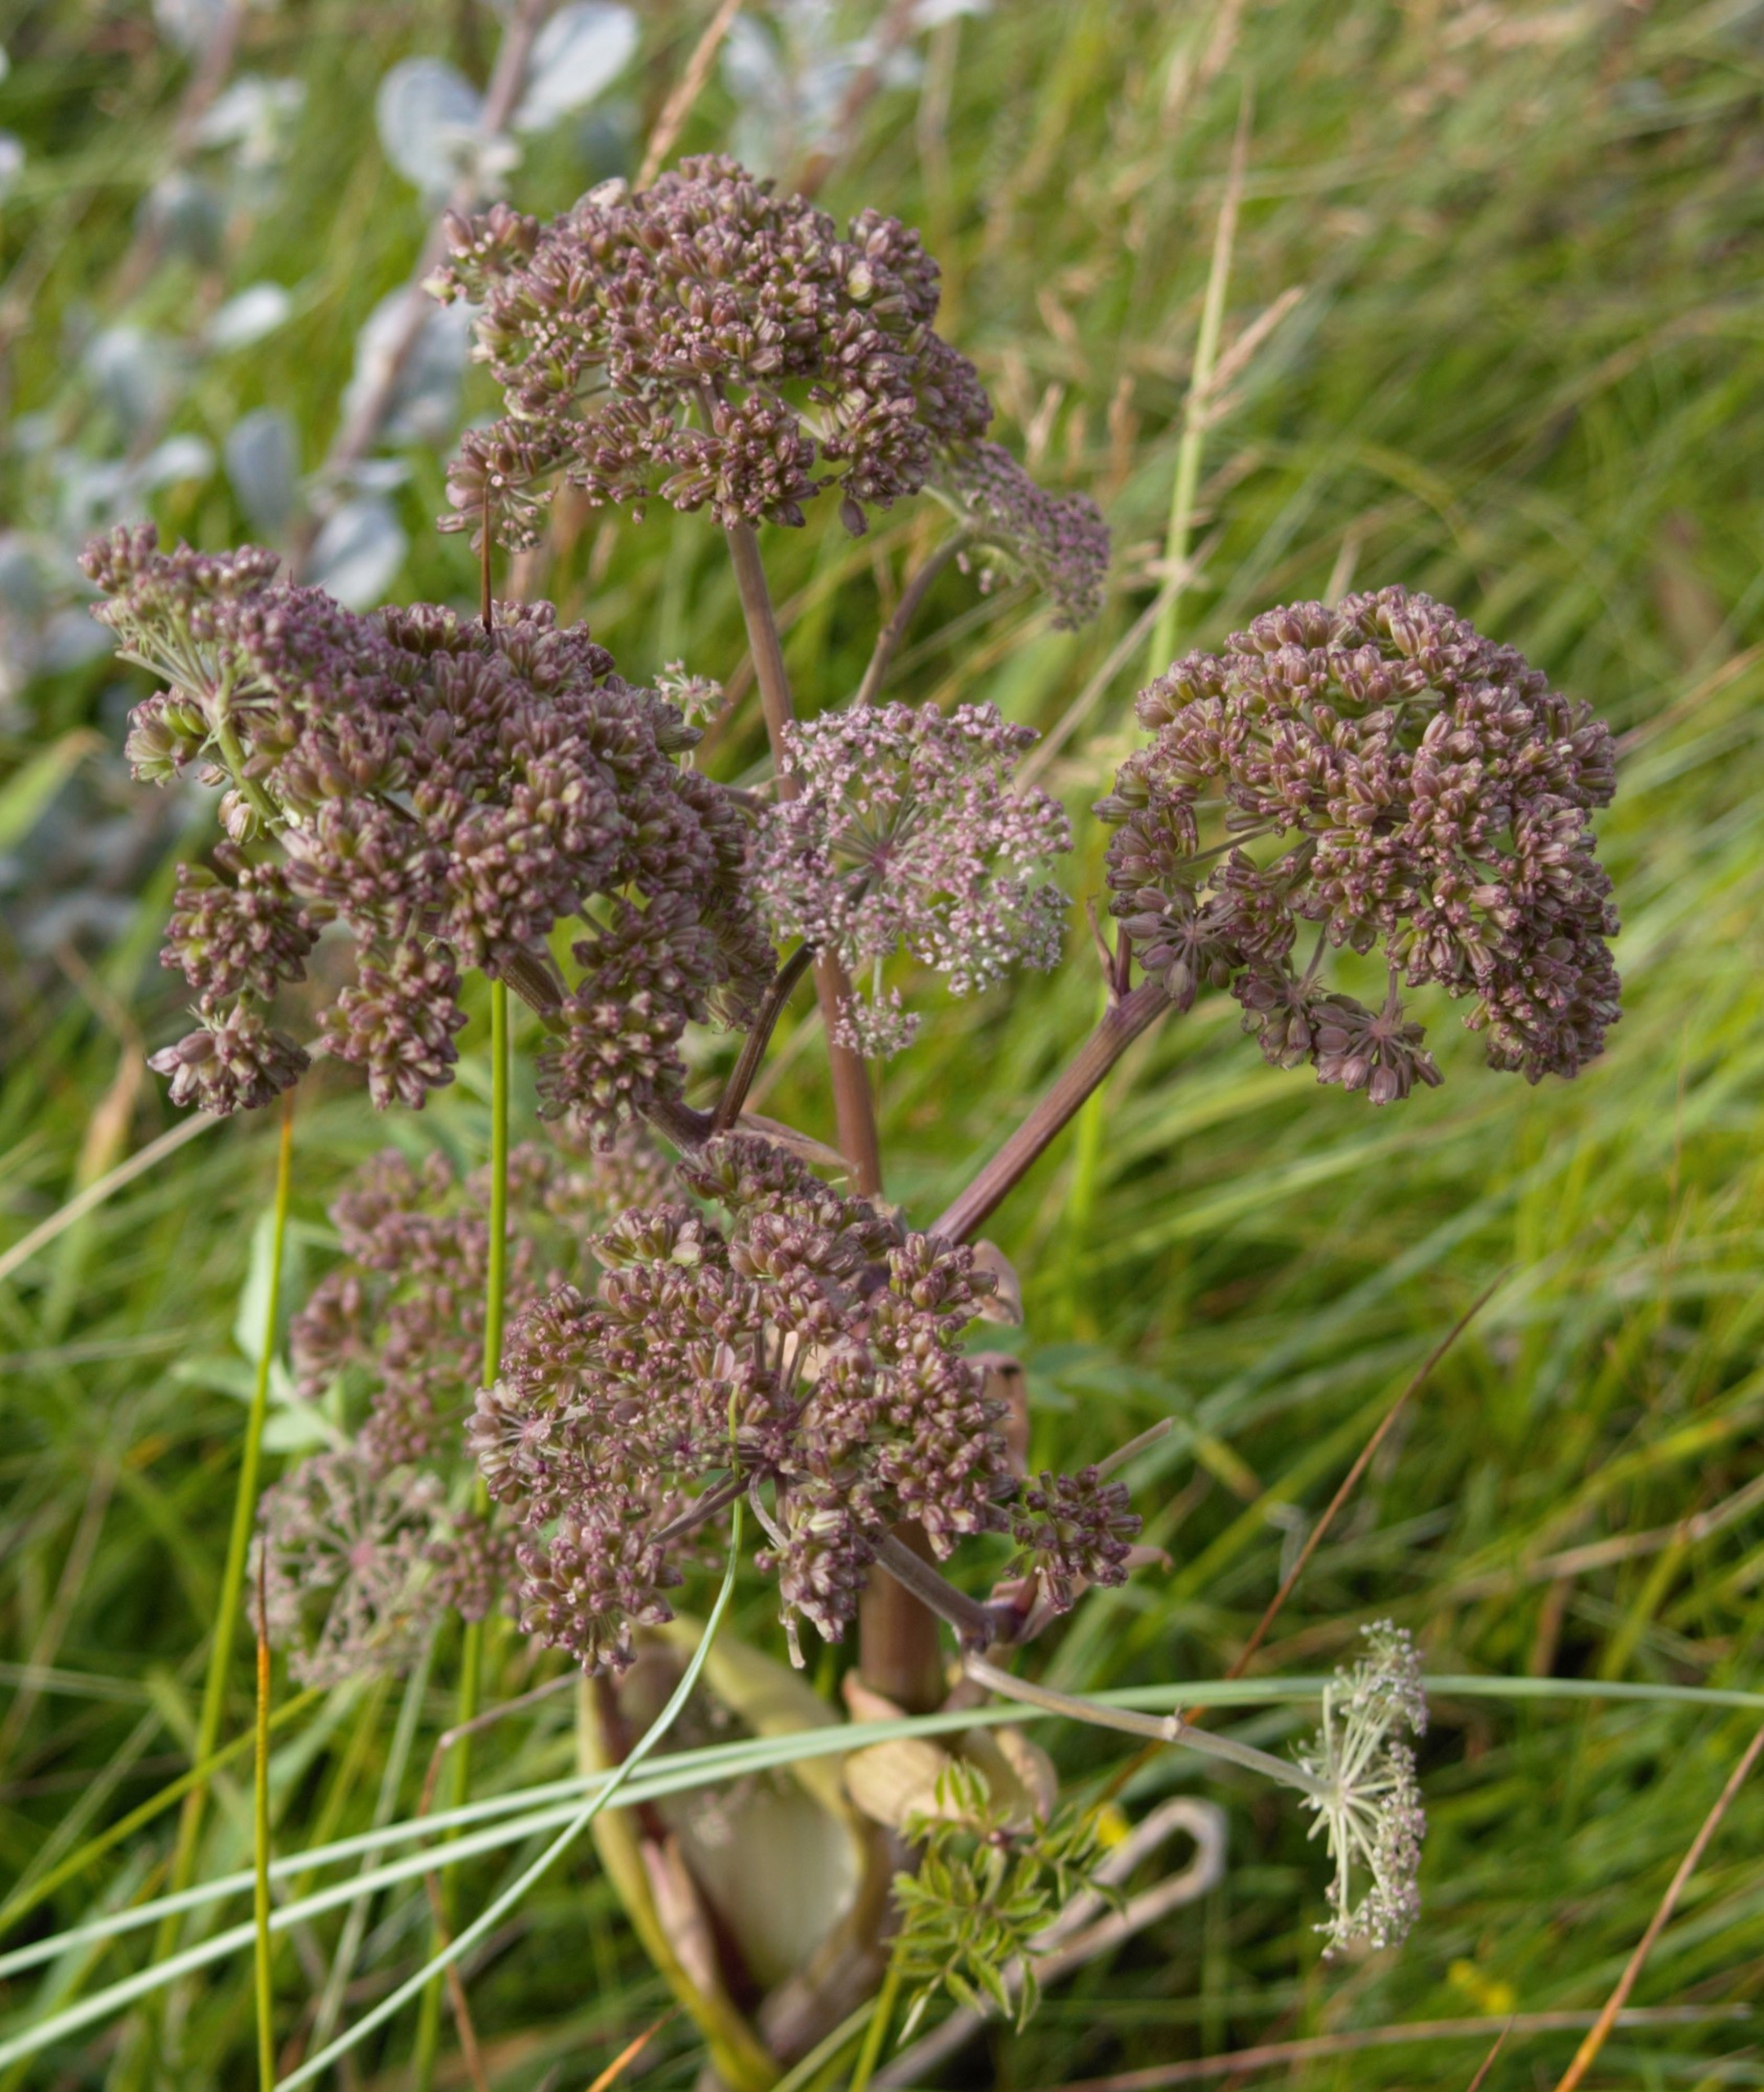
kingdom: Plantae
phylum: Tracheophyta
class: Magnoliopsida
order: Apiales
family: Apiaceae
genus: Angelica
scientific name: Angelica sylvestris
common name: Angelik
